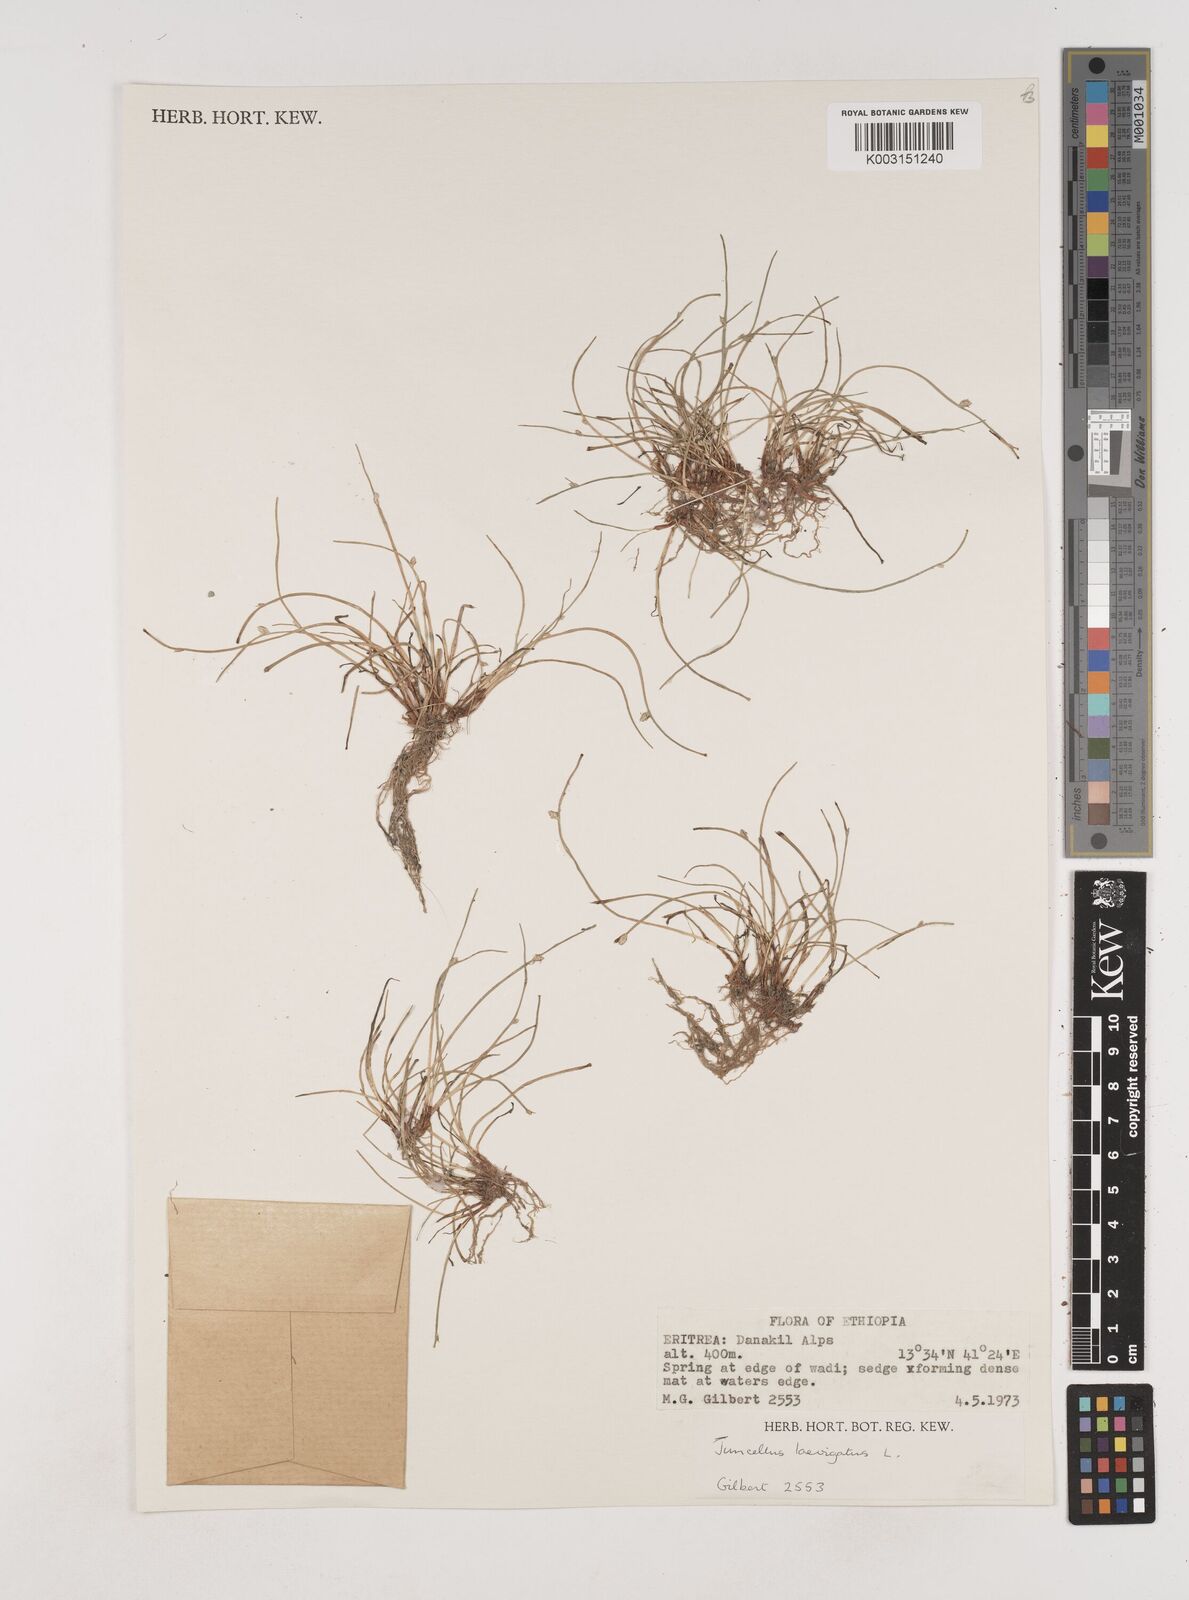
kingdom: Plantae
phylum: Tracheophyta
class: Liliopsida
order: Poales
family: Cyperaceae
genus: Cyperus
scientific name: Cyperus laevigatus
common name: Smooth flat sedge
